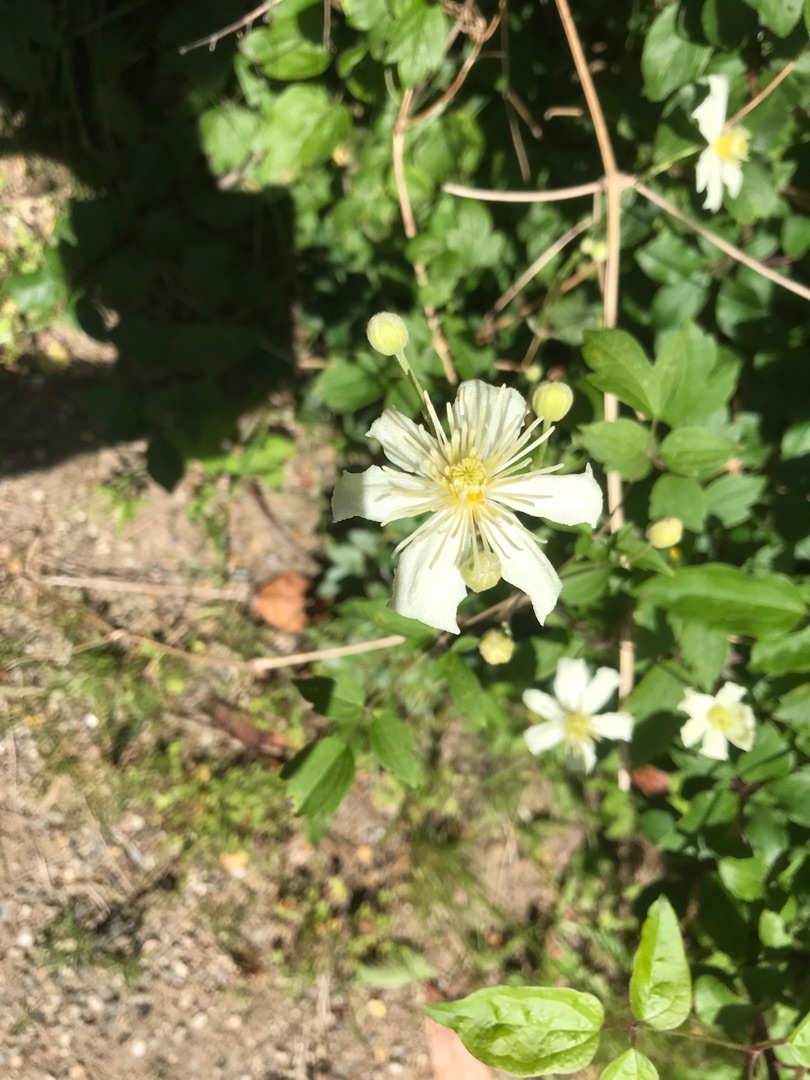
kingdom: Plantae
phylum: Tracheophyta
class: Magnoliopsida
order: Ranunculales
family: Ranunculaceae
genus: Clematis
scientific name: Clematis vitalba
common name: Skovranke
